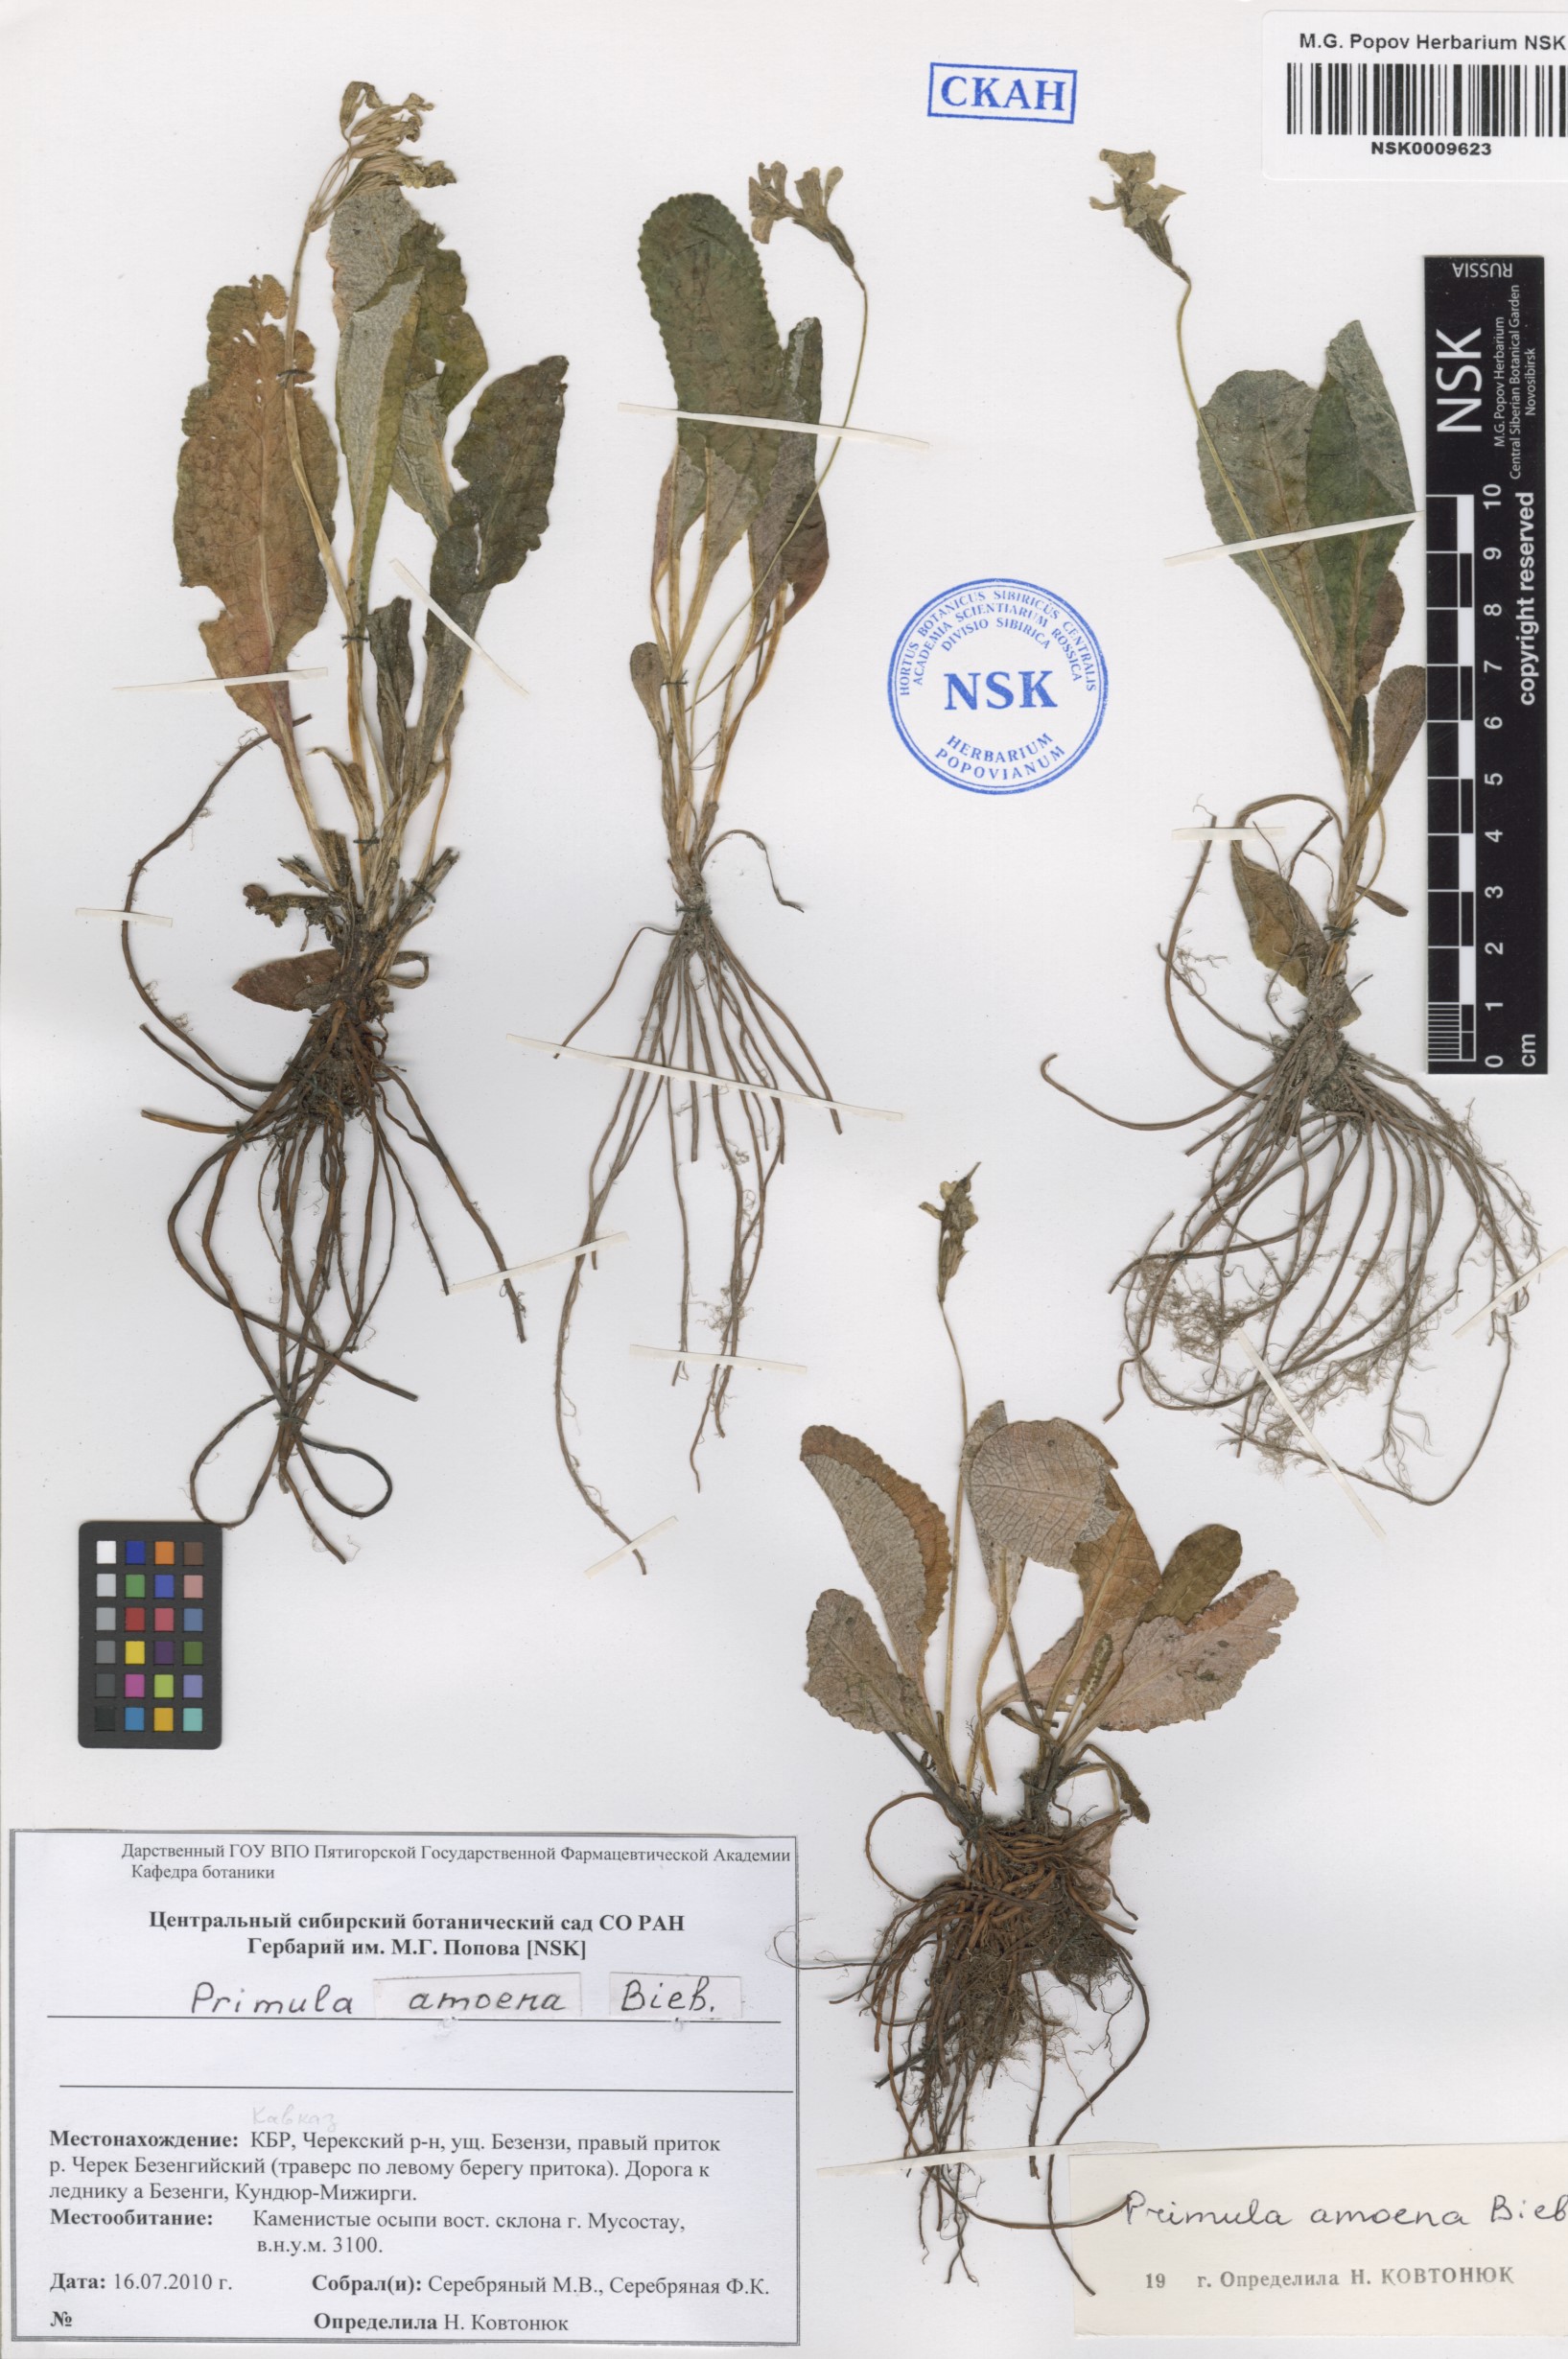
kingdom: Plantae
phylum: Tracheophyta
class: Magnoliopsida
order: Ericales
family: Primulaceae
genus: Primula
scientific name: Primula amoena
